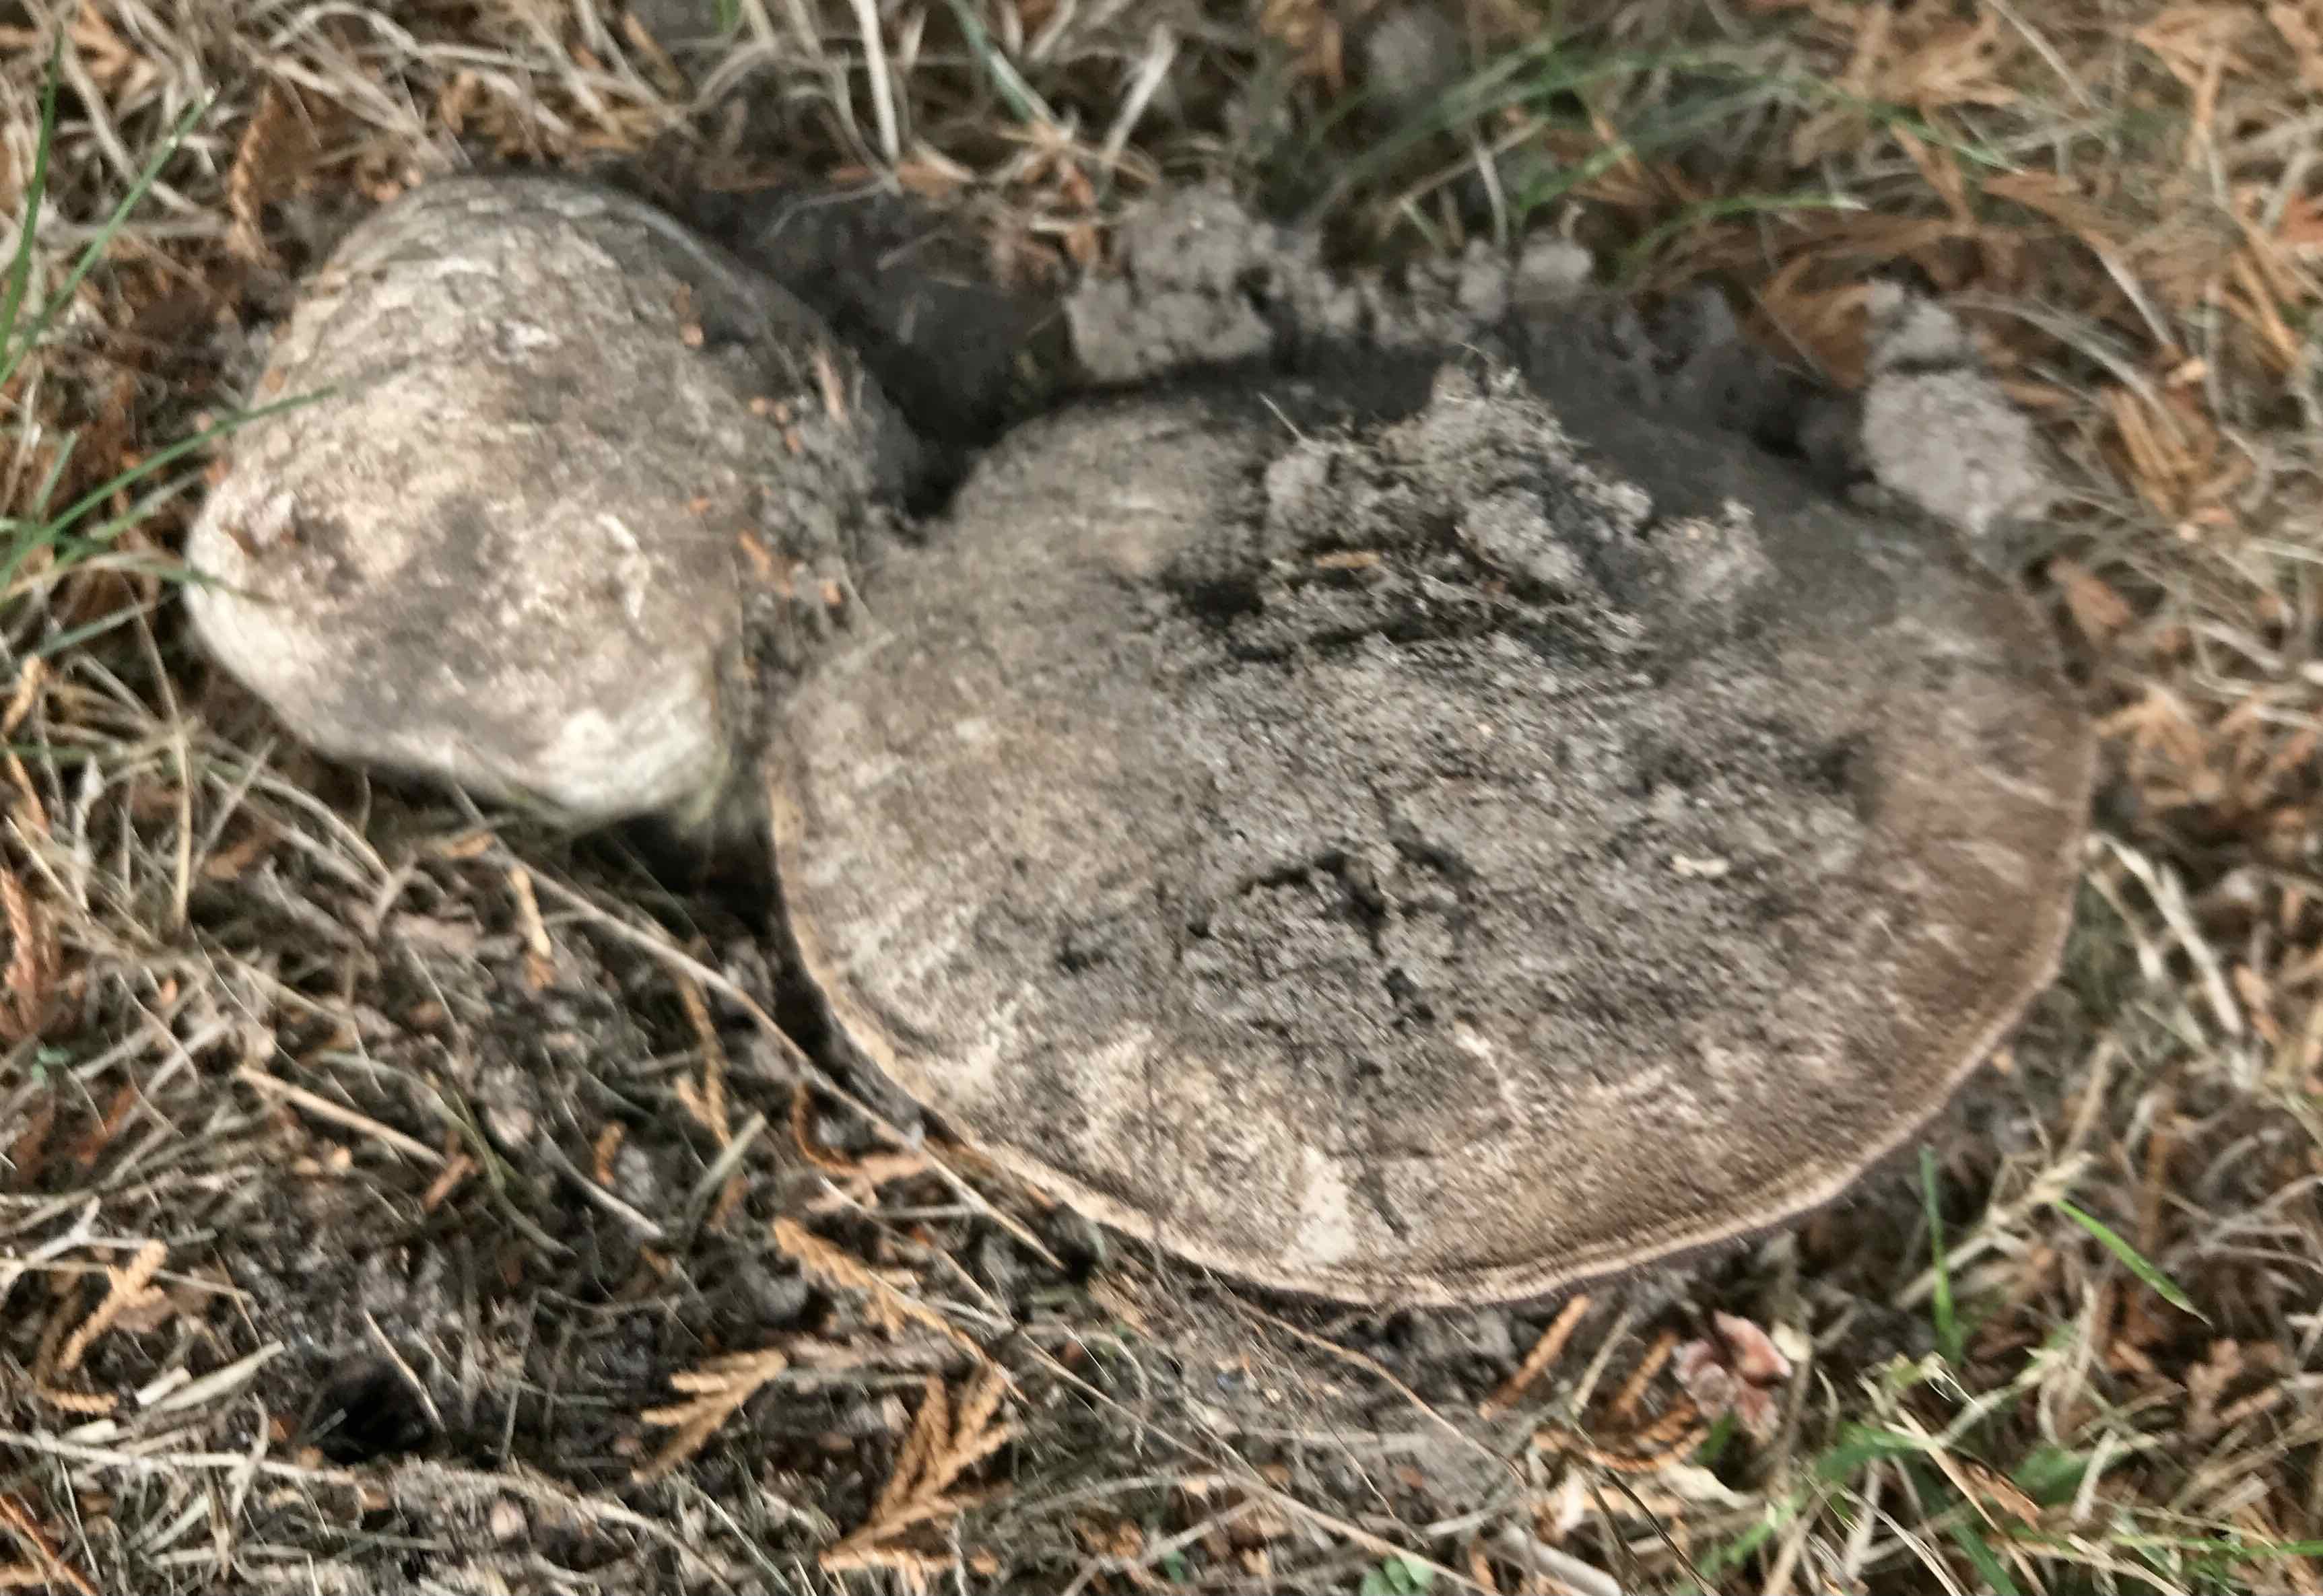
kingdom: Fungi
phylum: Basidiomycota
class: Agaricomycetes
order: Agaricales
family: Agaricaceae
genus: Agaricus
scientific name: Agaricus bitorquis
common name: vej-champignon
